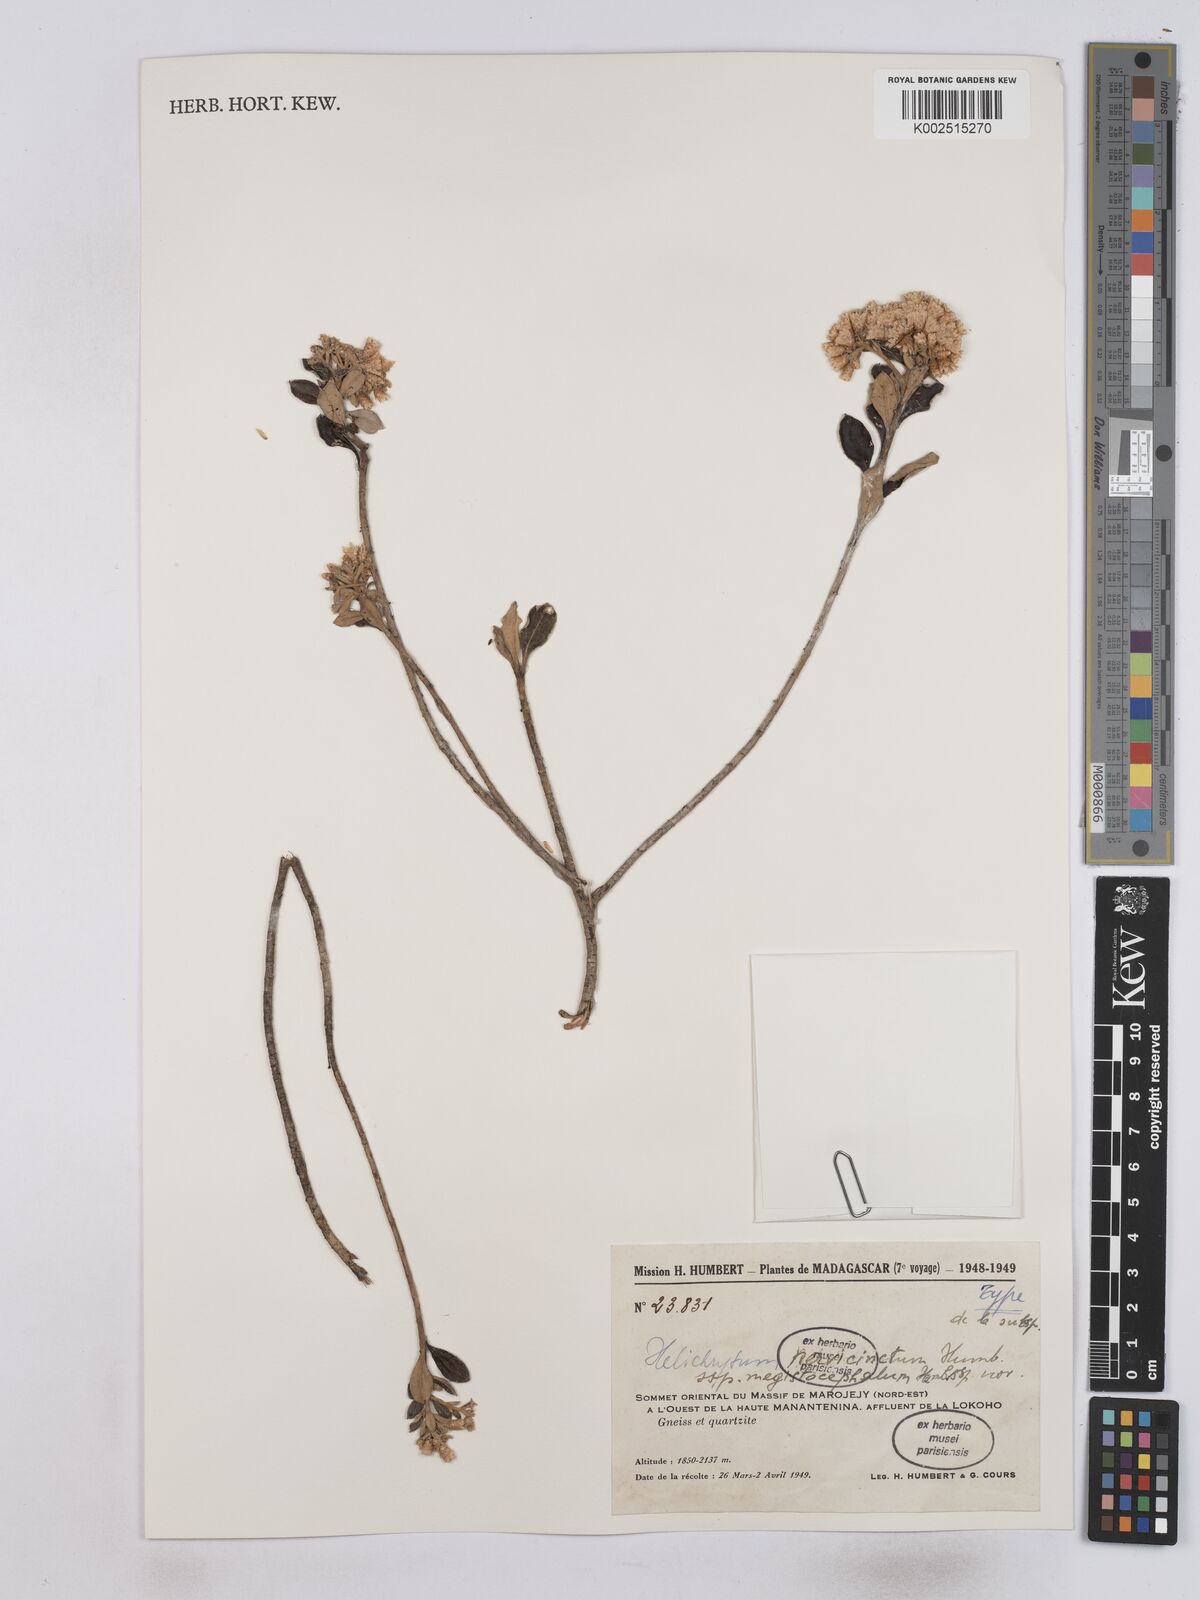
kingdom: Plantae
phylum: Tracheophyta
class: Magnoliopsida
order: Asterales
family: Asteraceae
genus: Helichrysum
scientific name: Helichrysum nervicinctum
